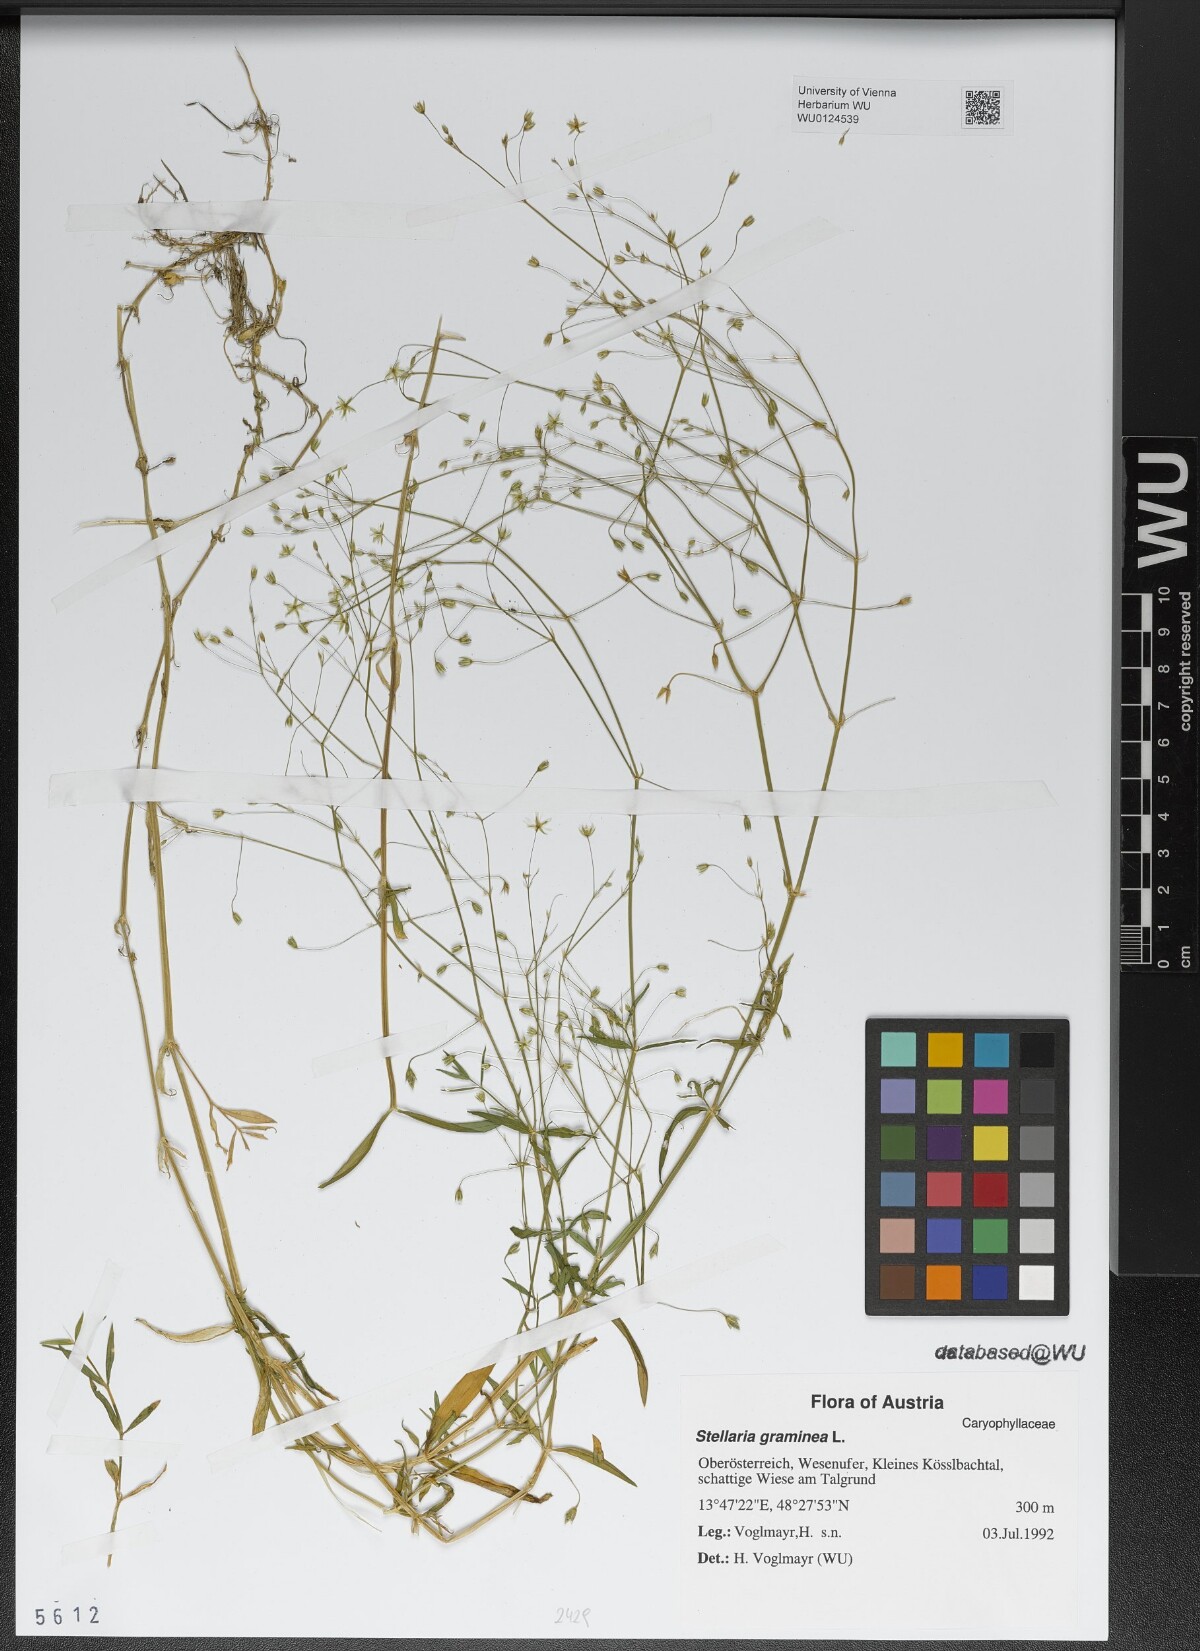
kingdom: Plantae
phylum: Tracheophyta
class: Magnoliopsida
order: Caryophyllales
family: Caryophyllaceae
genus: Stellaria
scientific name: Stellaria graminea
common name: Grass-like starwort
